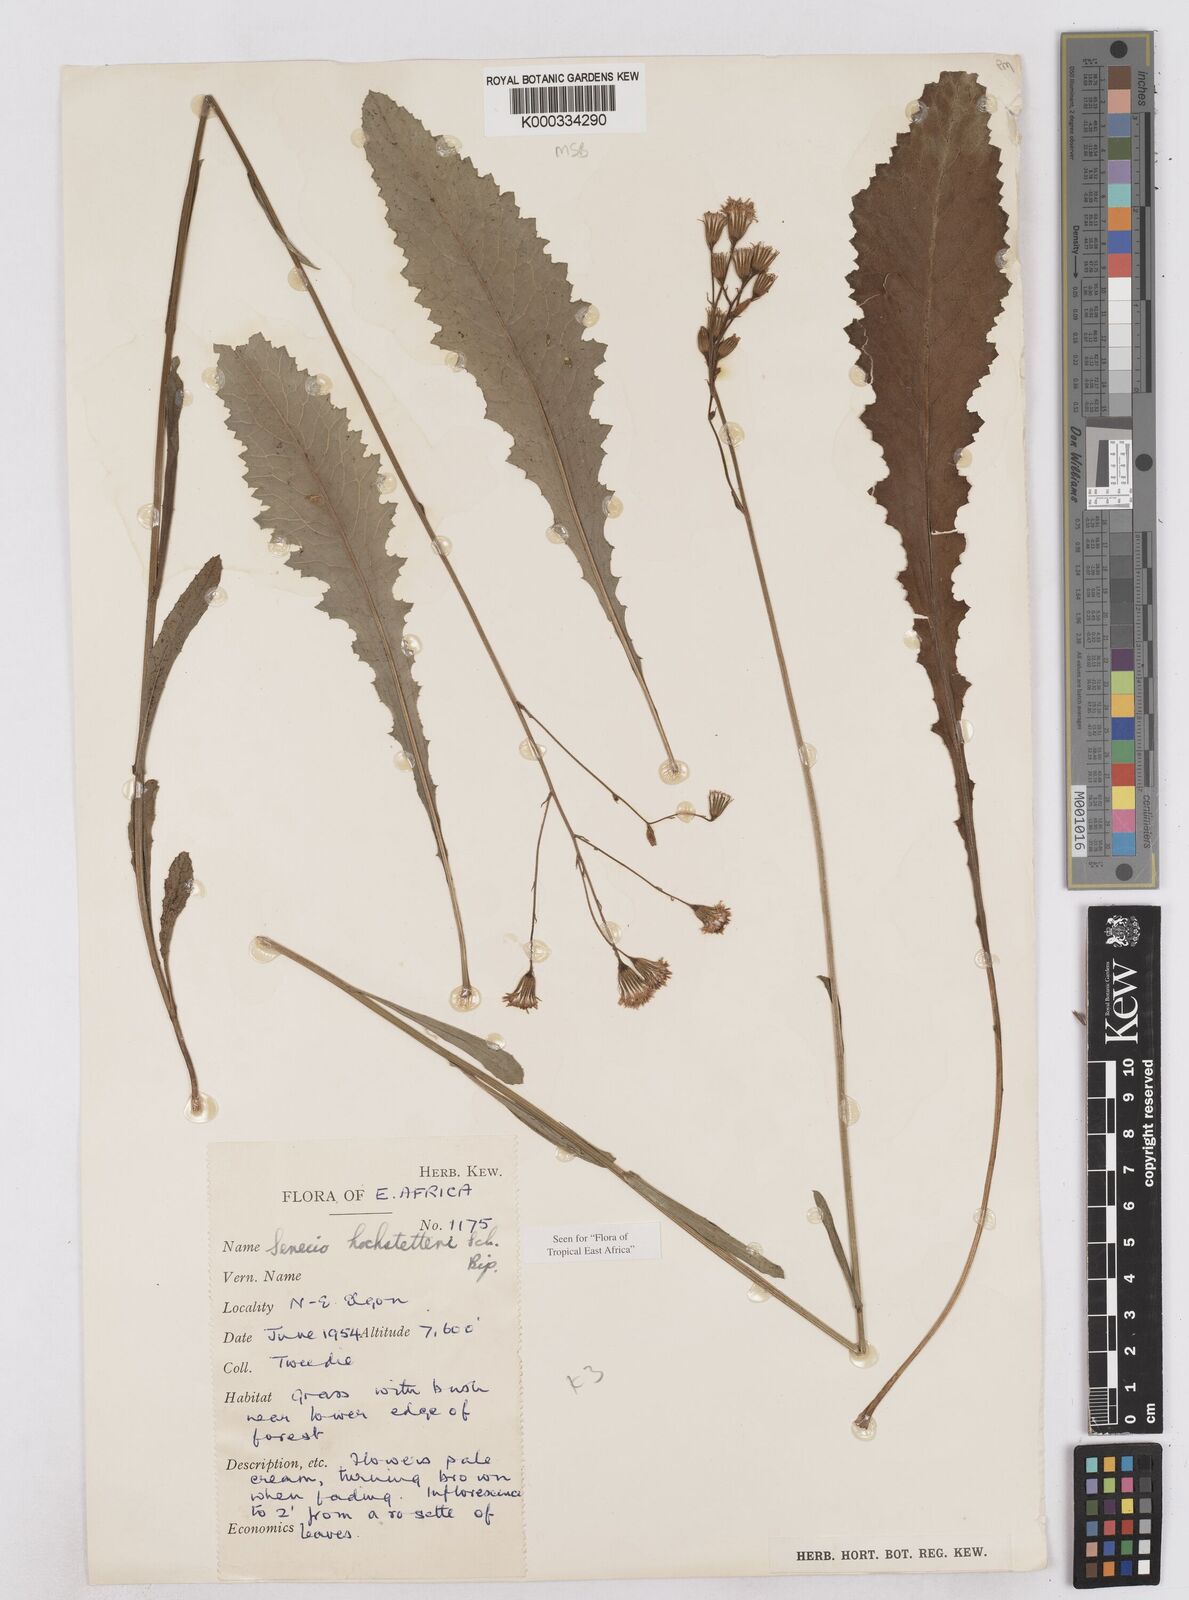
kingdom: Plantae
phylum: Tracheophyta
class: Magnoliopsida
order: Asterales
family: Asteraceae
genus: Senecio
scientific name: Senecio hochstetteri
